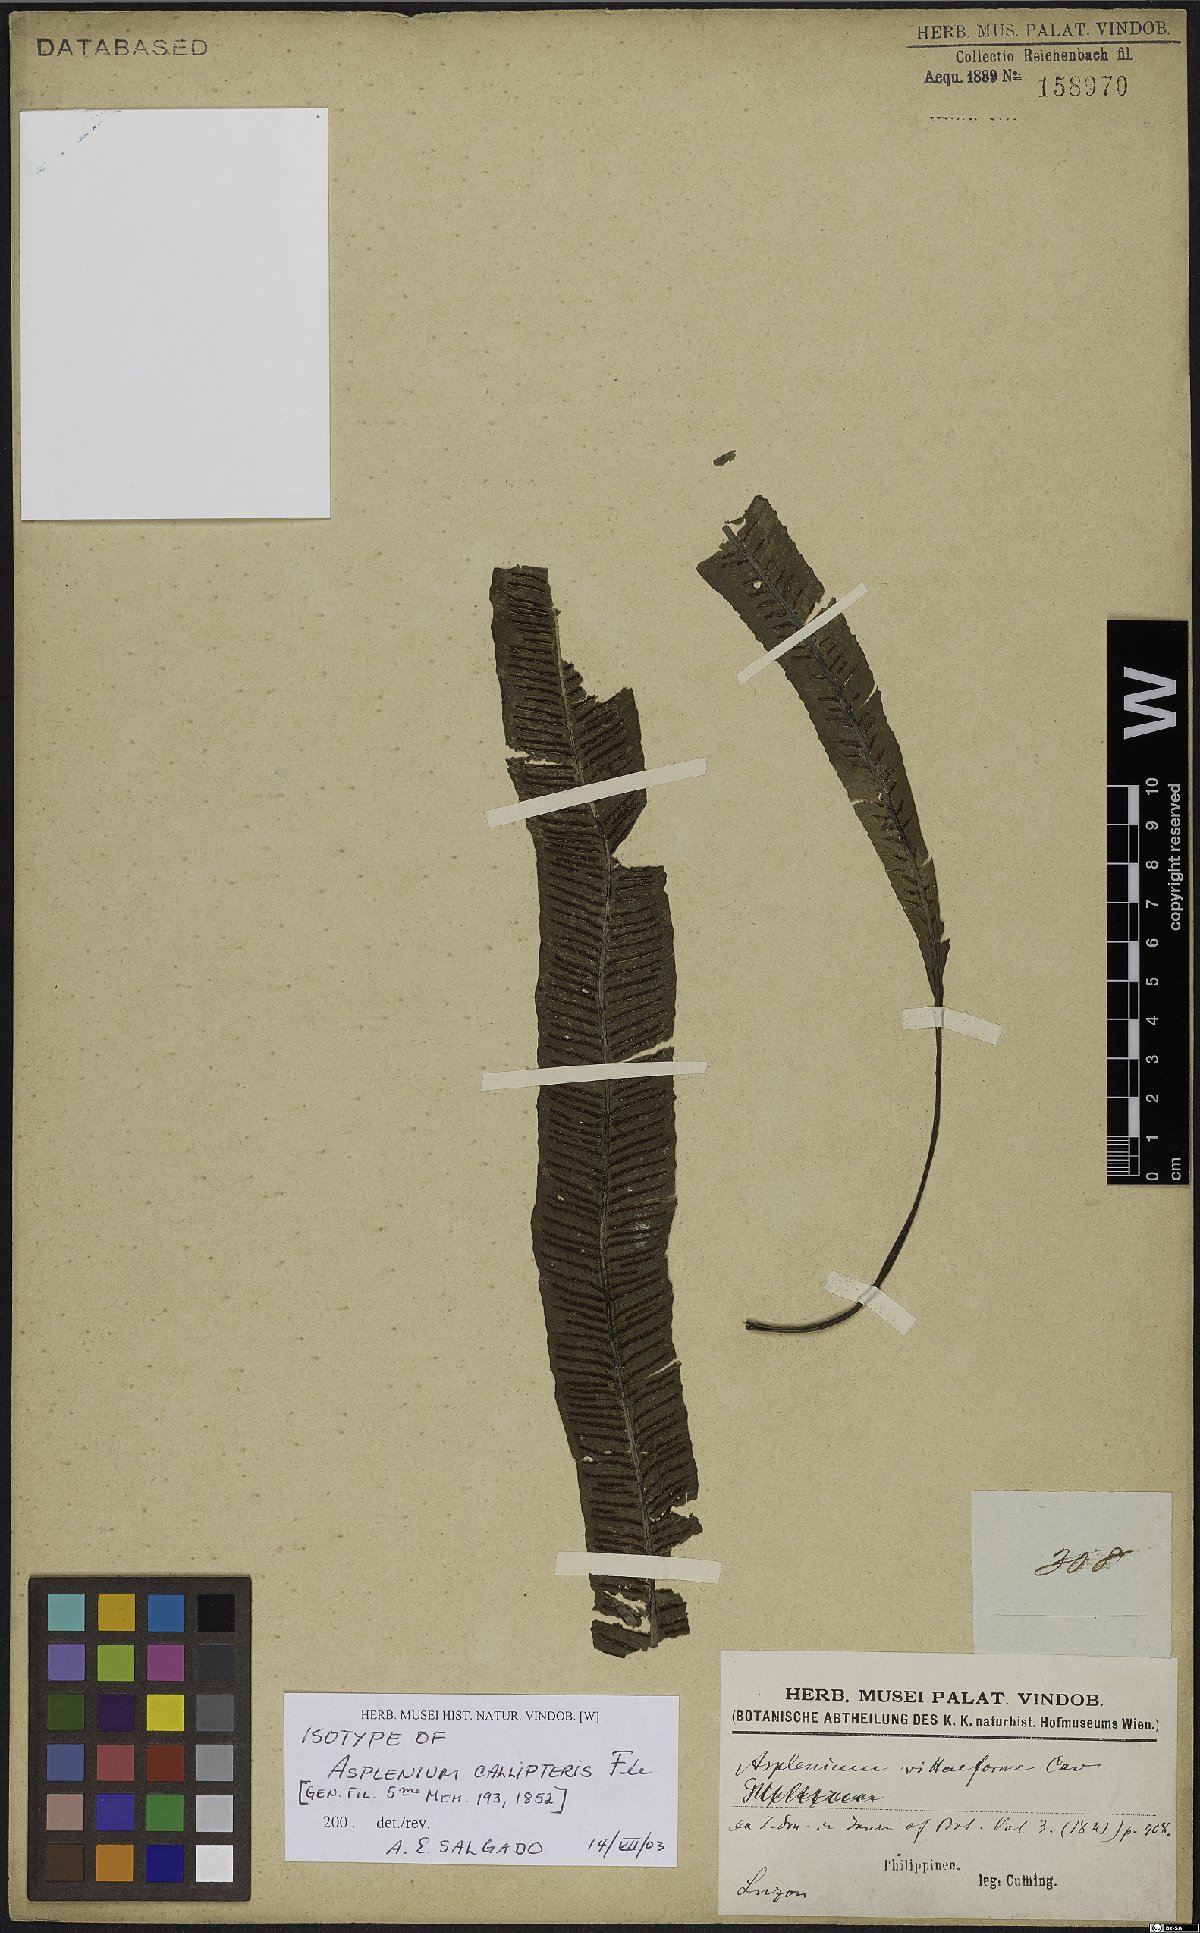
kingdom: Plantae
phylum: Tracheophyta
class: Polypodiopsida
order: Polypodiales
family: Aspleniaceae
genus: Asplenium
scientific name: Asplenium callipteris
